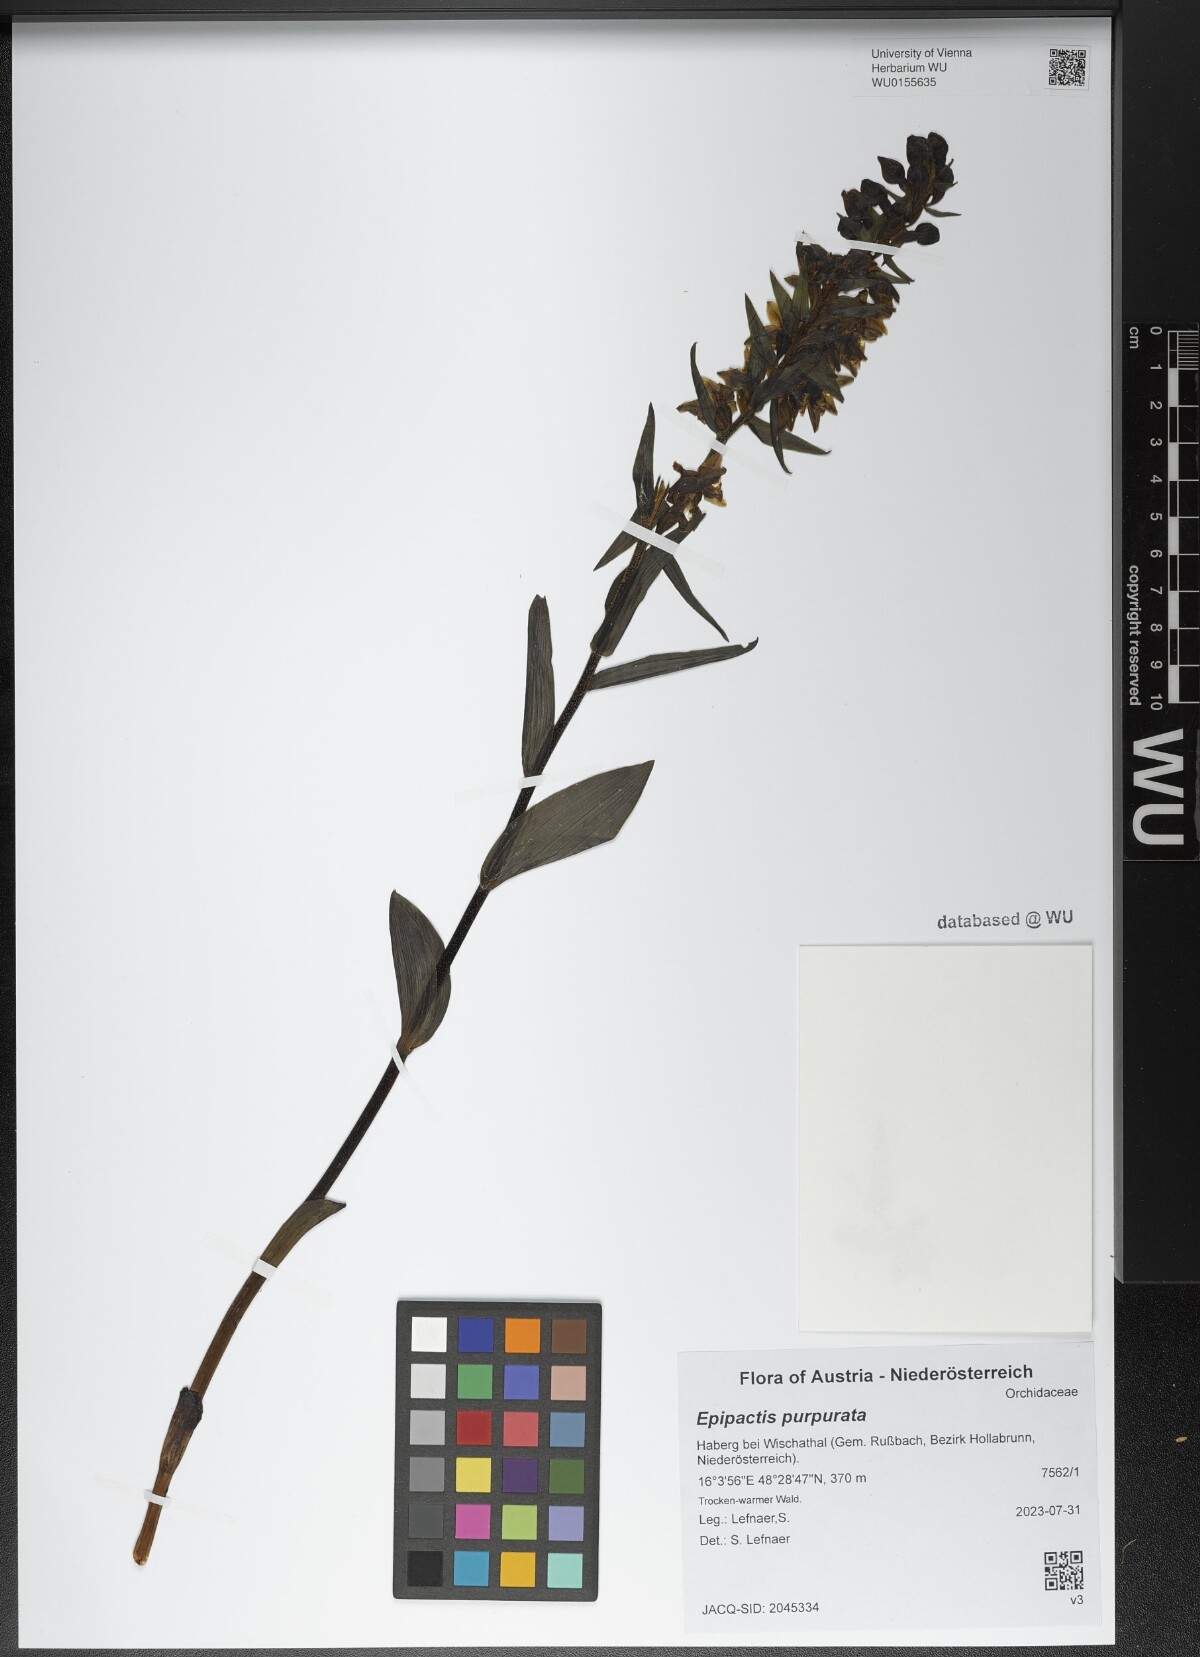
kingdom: Plantae
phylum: Tracheophyta
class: Liliopsida
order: Asparagales
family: Orchidaceae
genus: Epipactis
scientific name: Epipactis purpurata
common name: Violet helleborine
